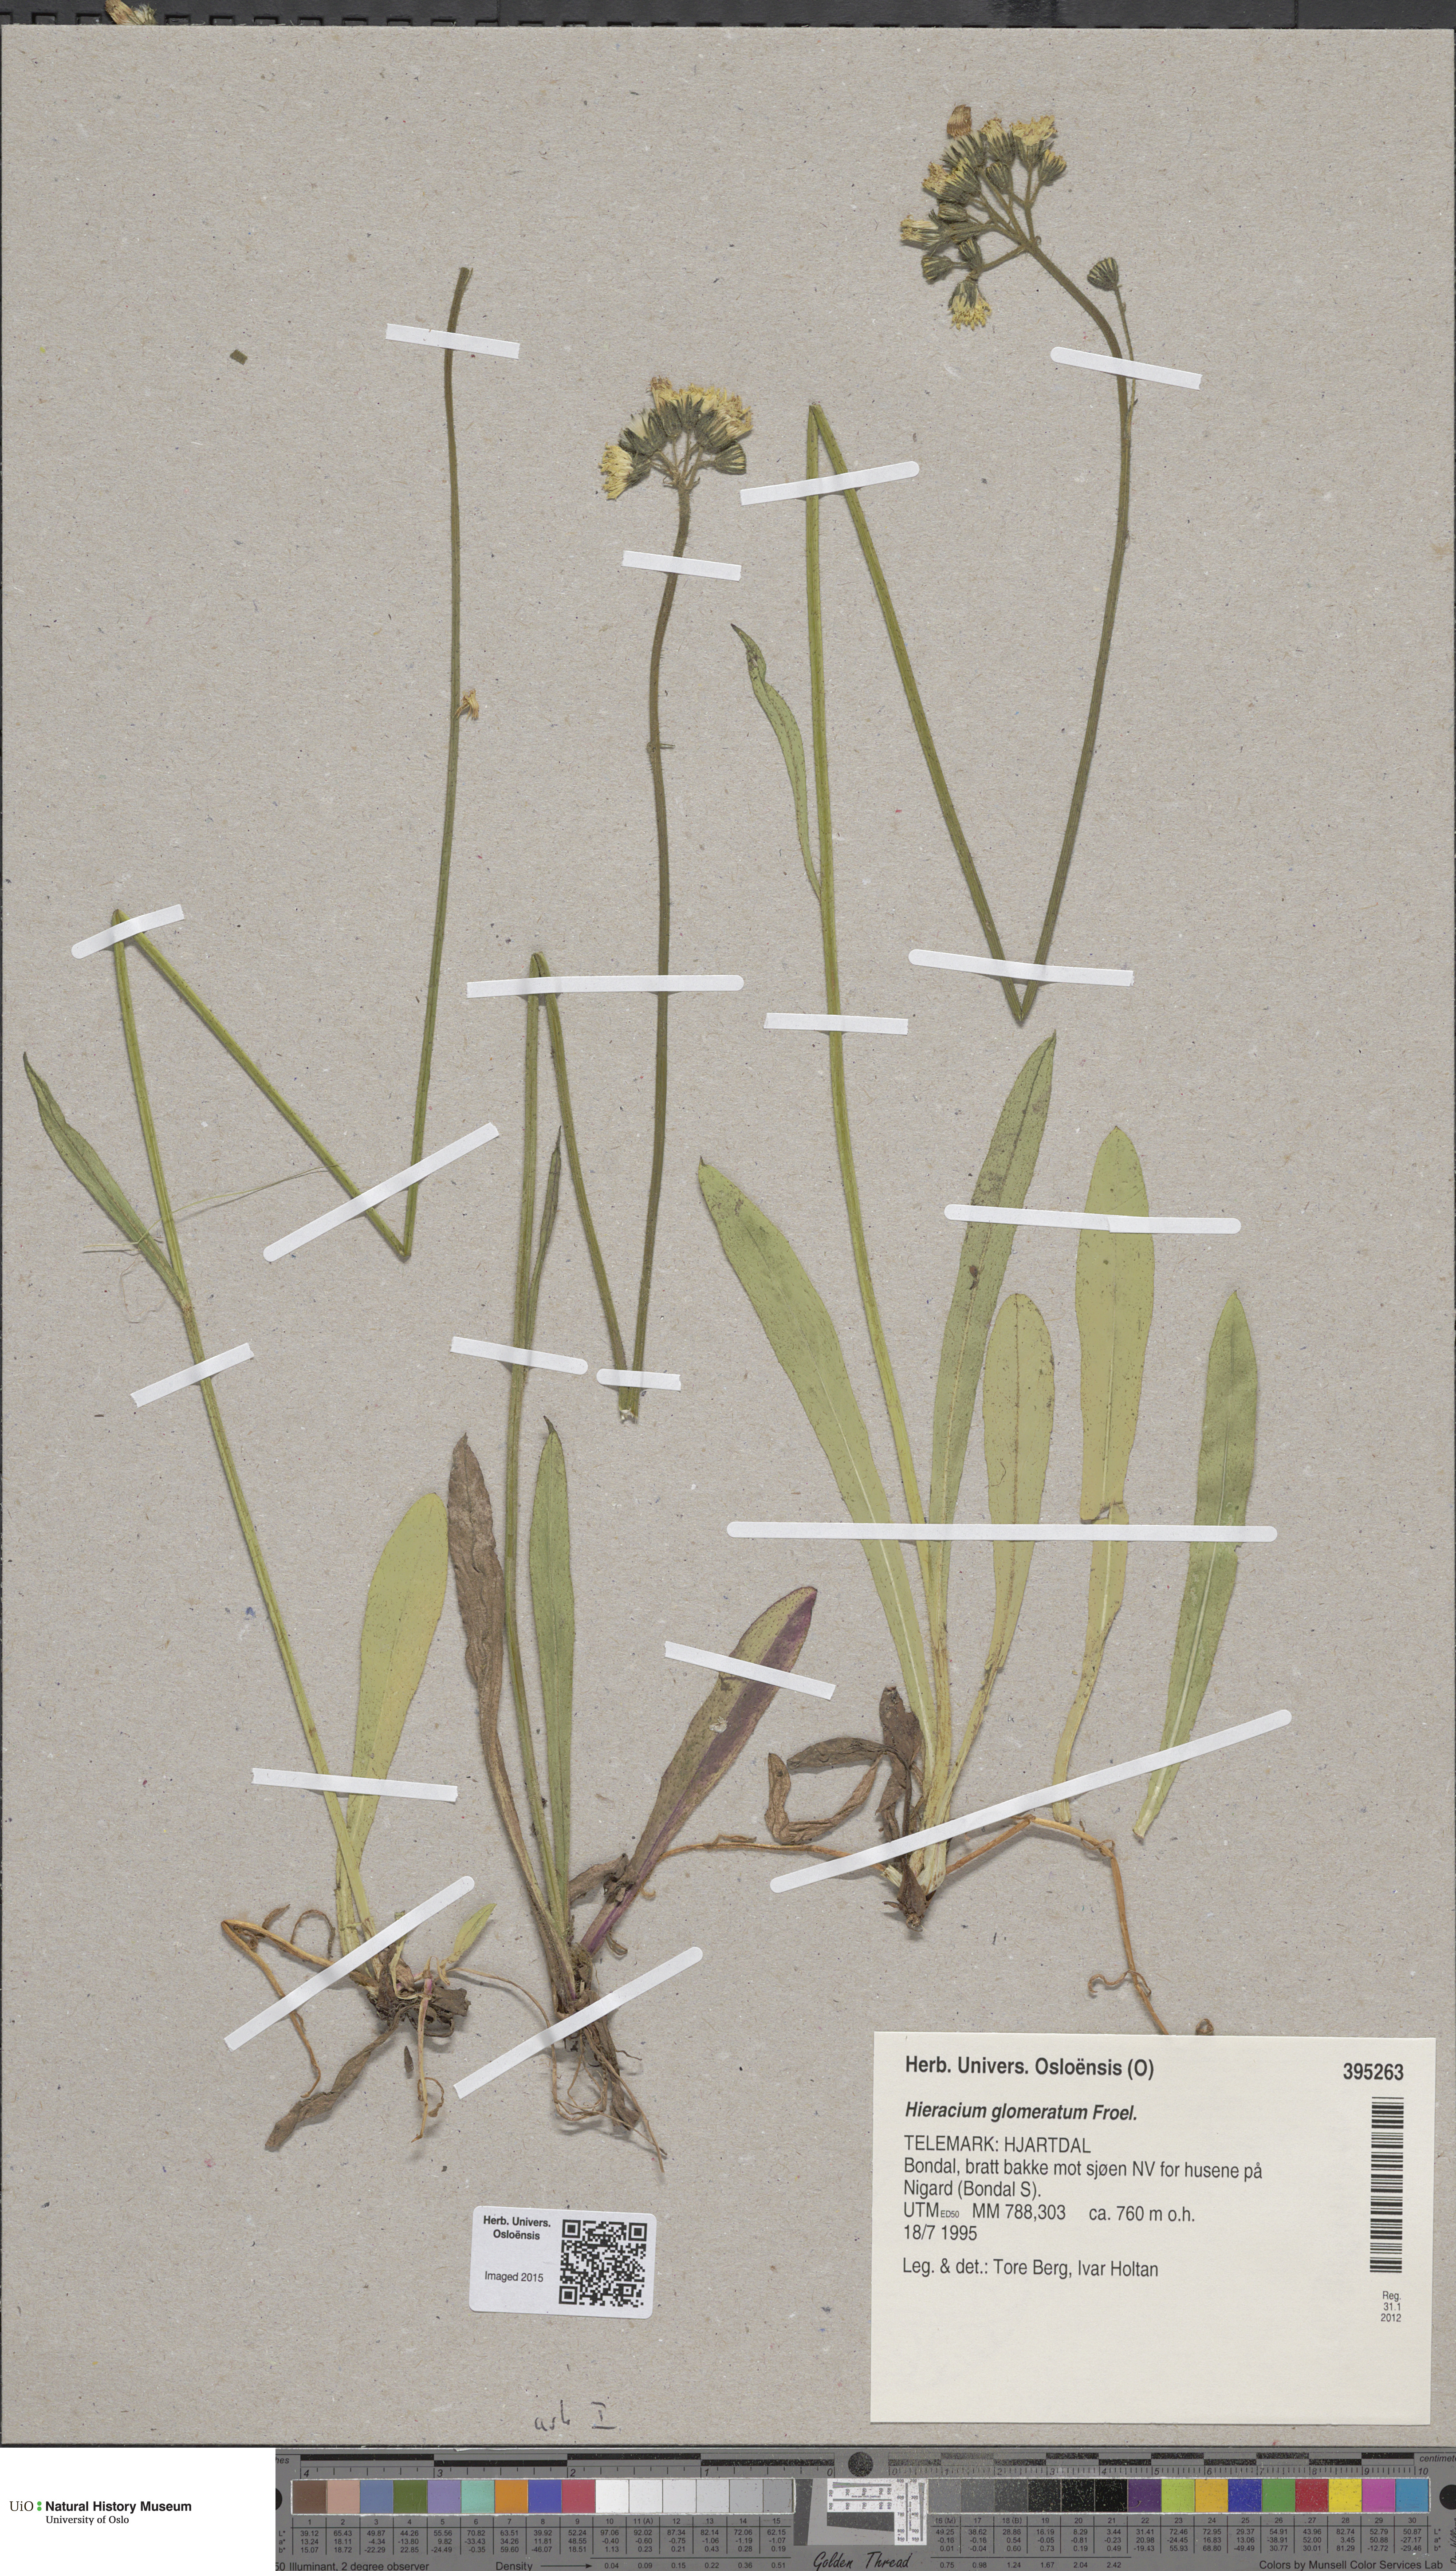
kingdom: Plantae
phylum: Tracheophyta
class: Magnoliopsida
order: Asterales
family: Asteraceae
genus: Pilosella
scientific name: Pilosella glomerata
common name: Queen devil hawkweed
